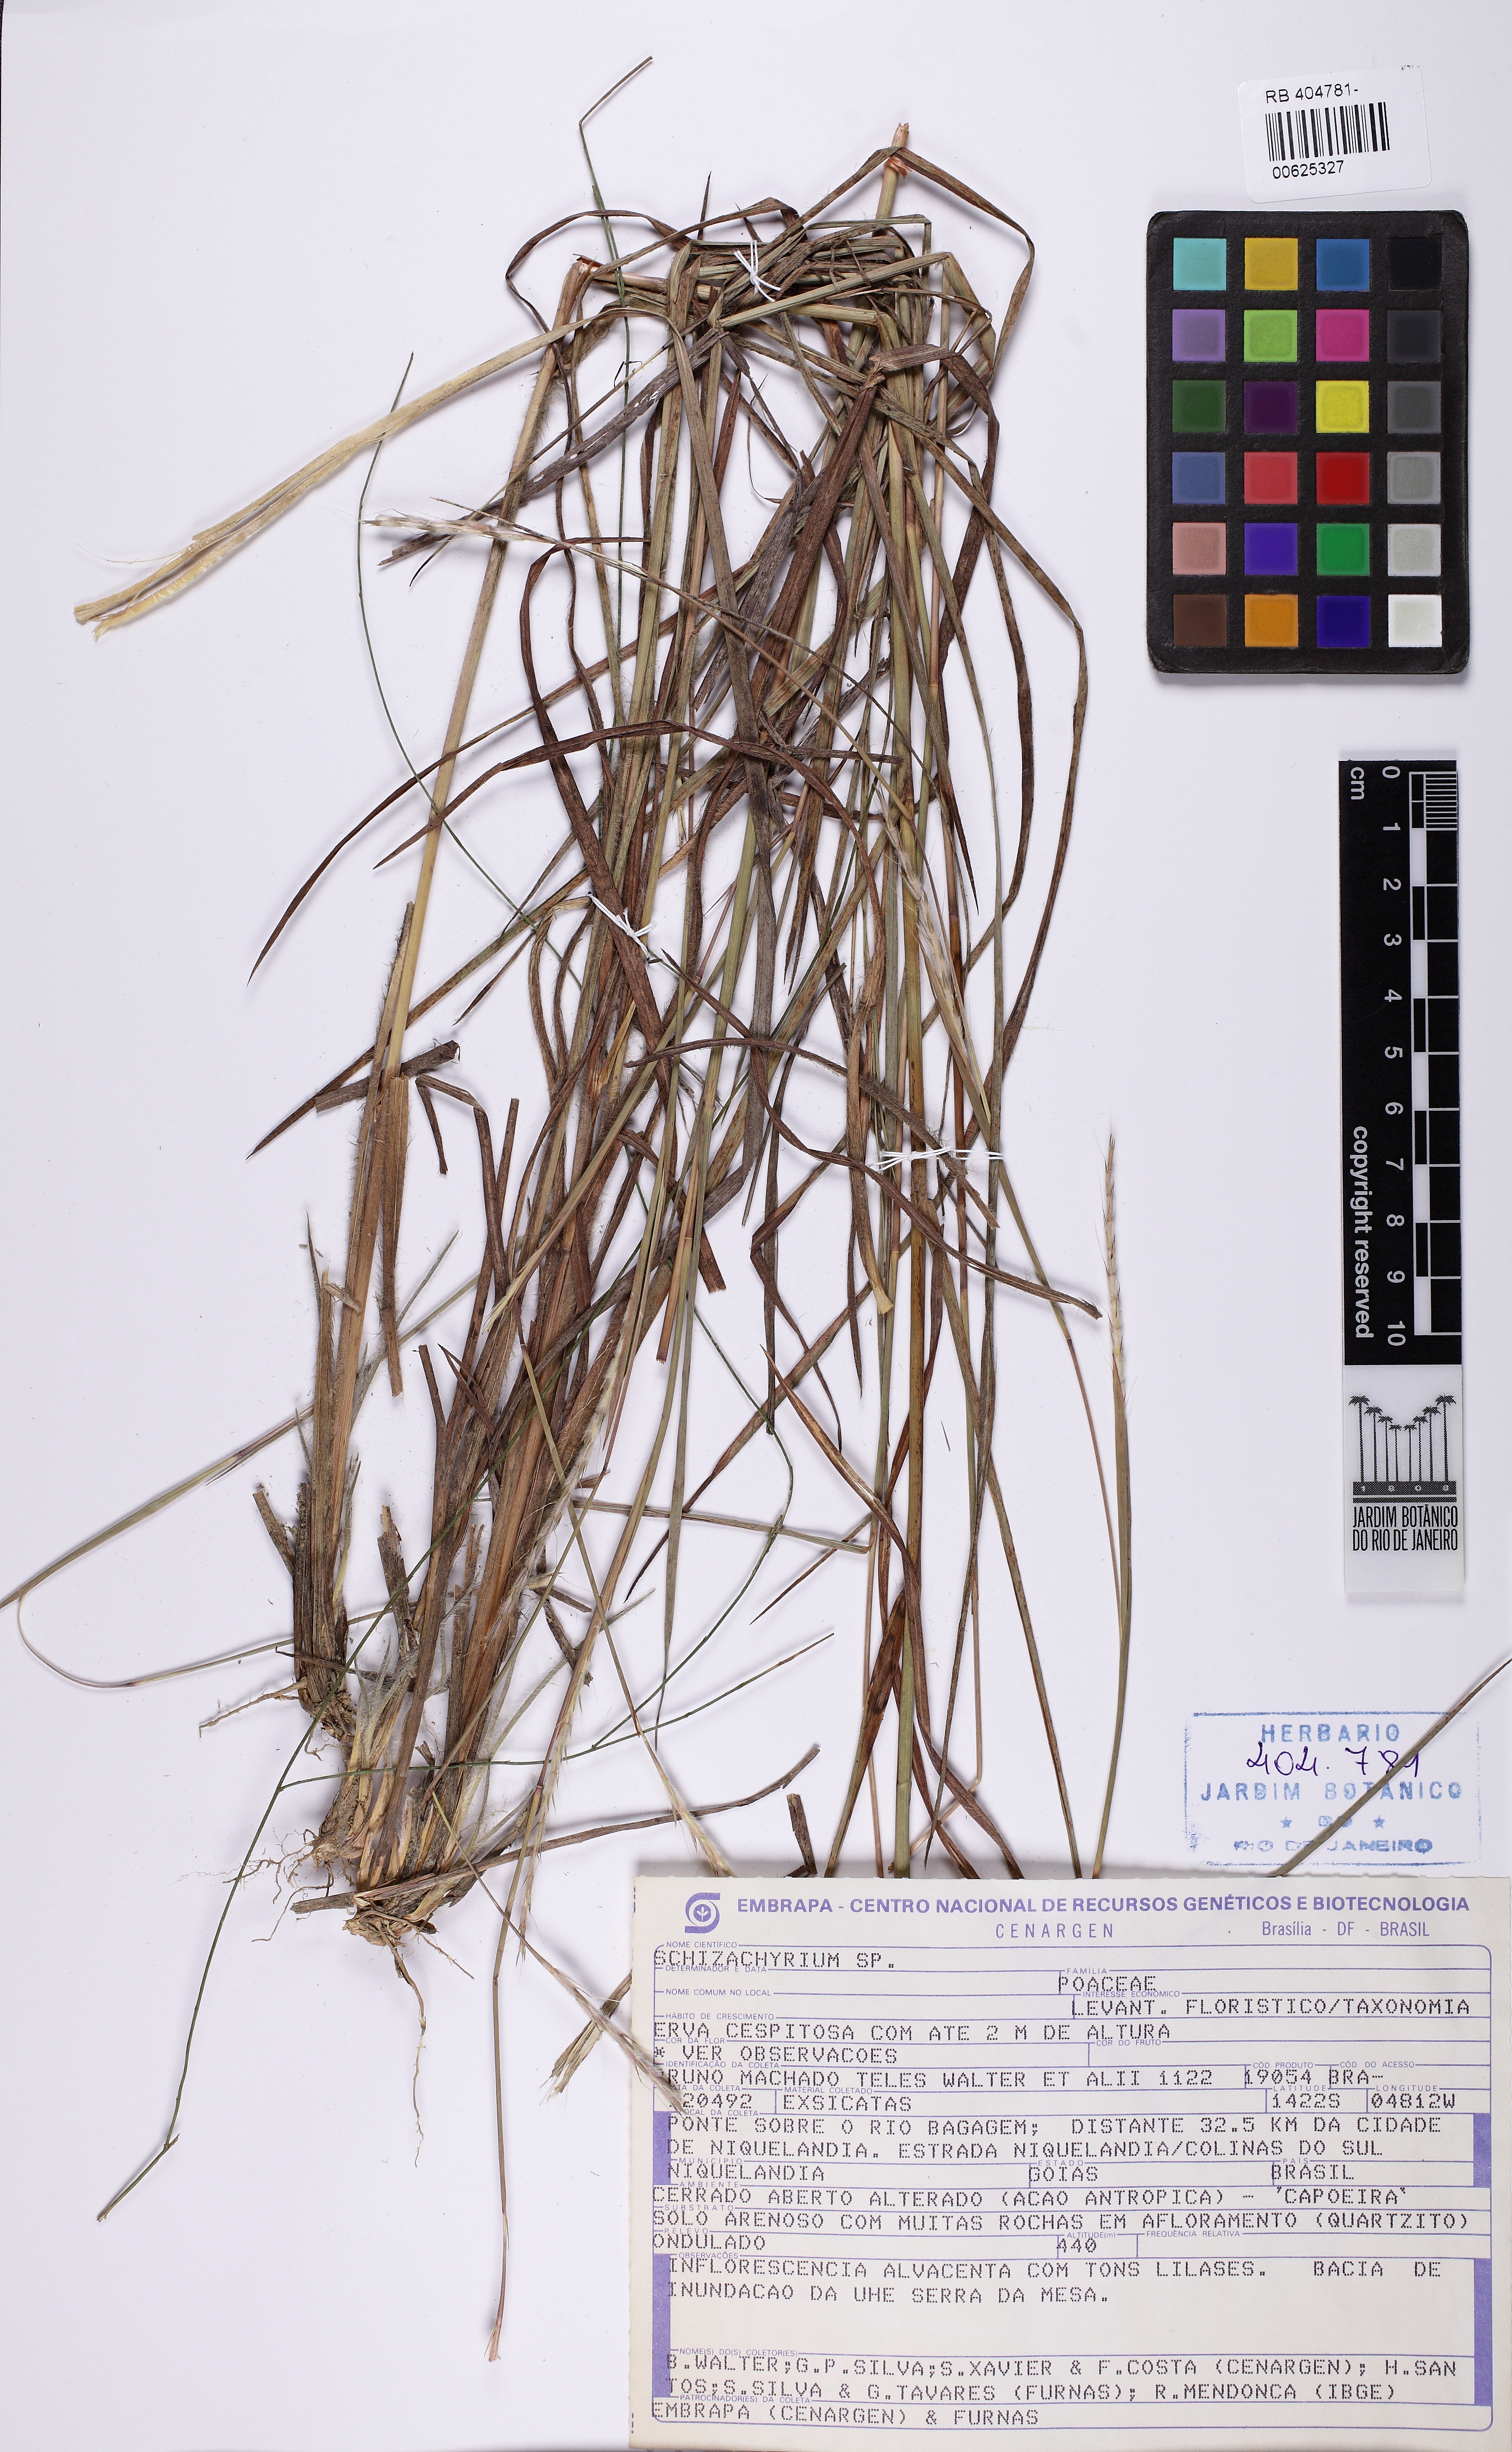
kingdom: Plantae
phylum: Tracheophyta
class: Liliopsida
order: Poales
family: Poaceae
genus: Schizachyrium
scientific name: Schizachyrium
